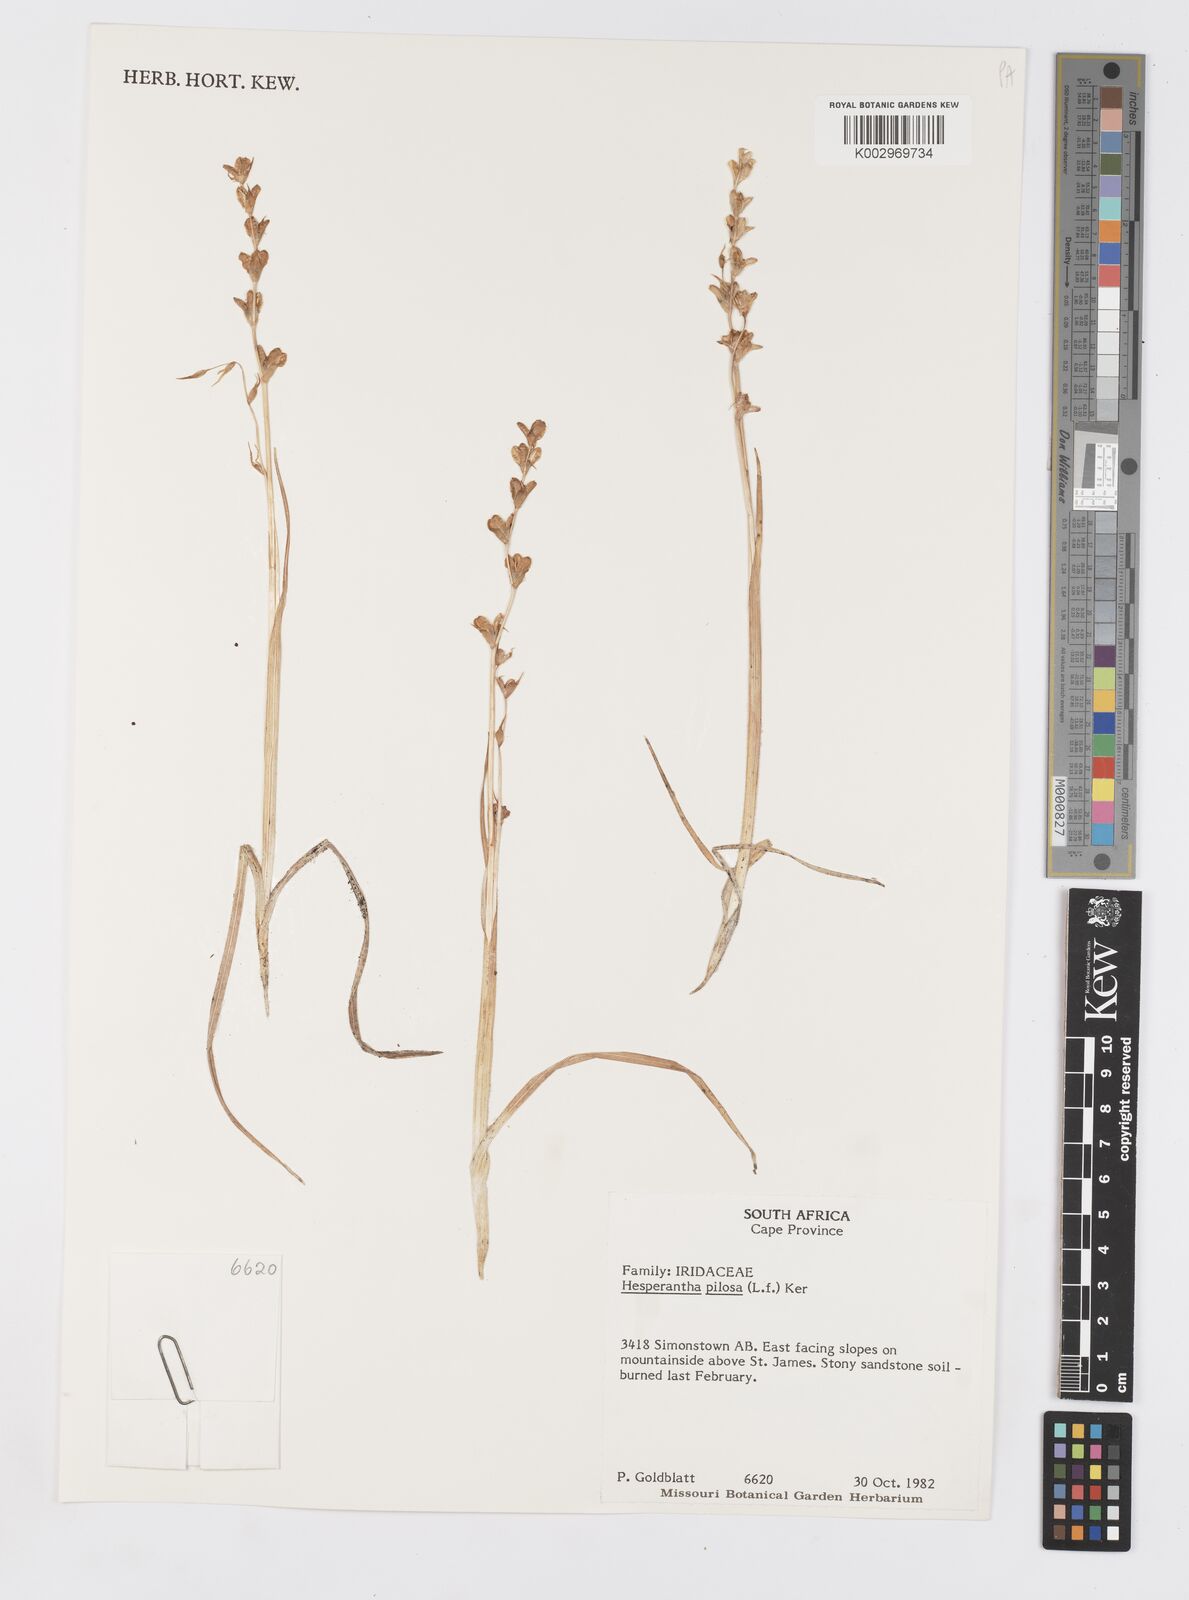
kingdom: Plantae
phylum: Tracheophyta
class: Liliopsida
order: Asparagales
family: Iridaceae
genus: Hesperantha
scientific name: Hesperantha pilosa
